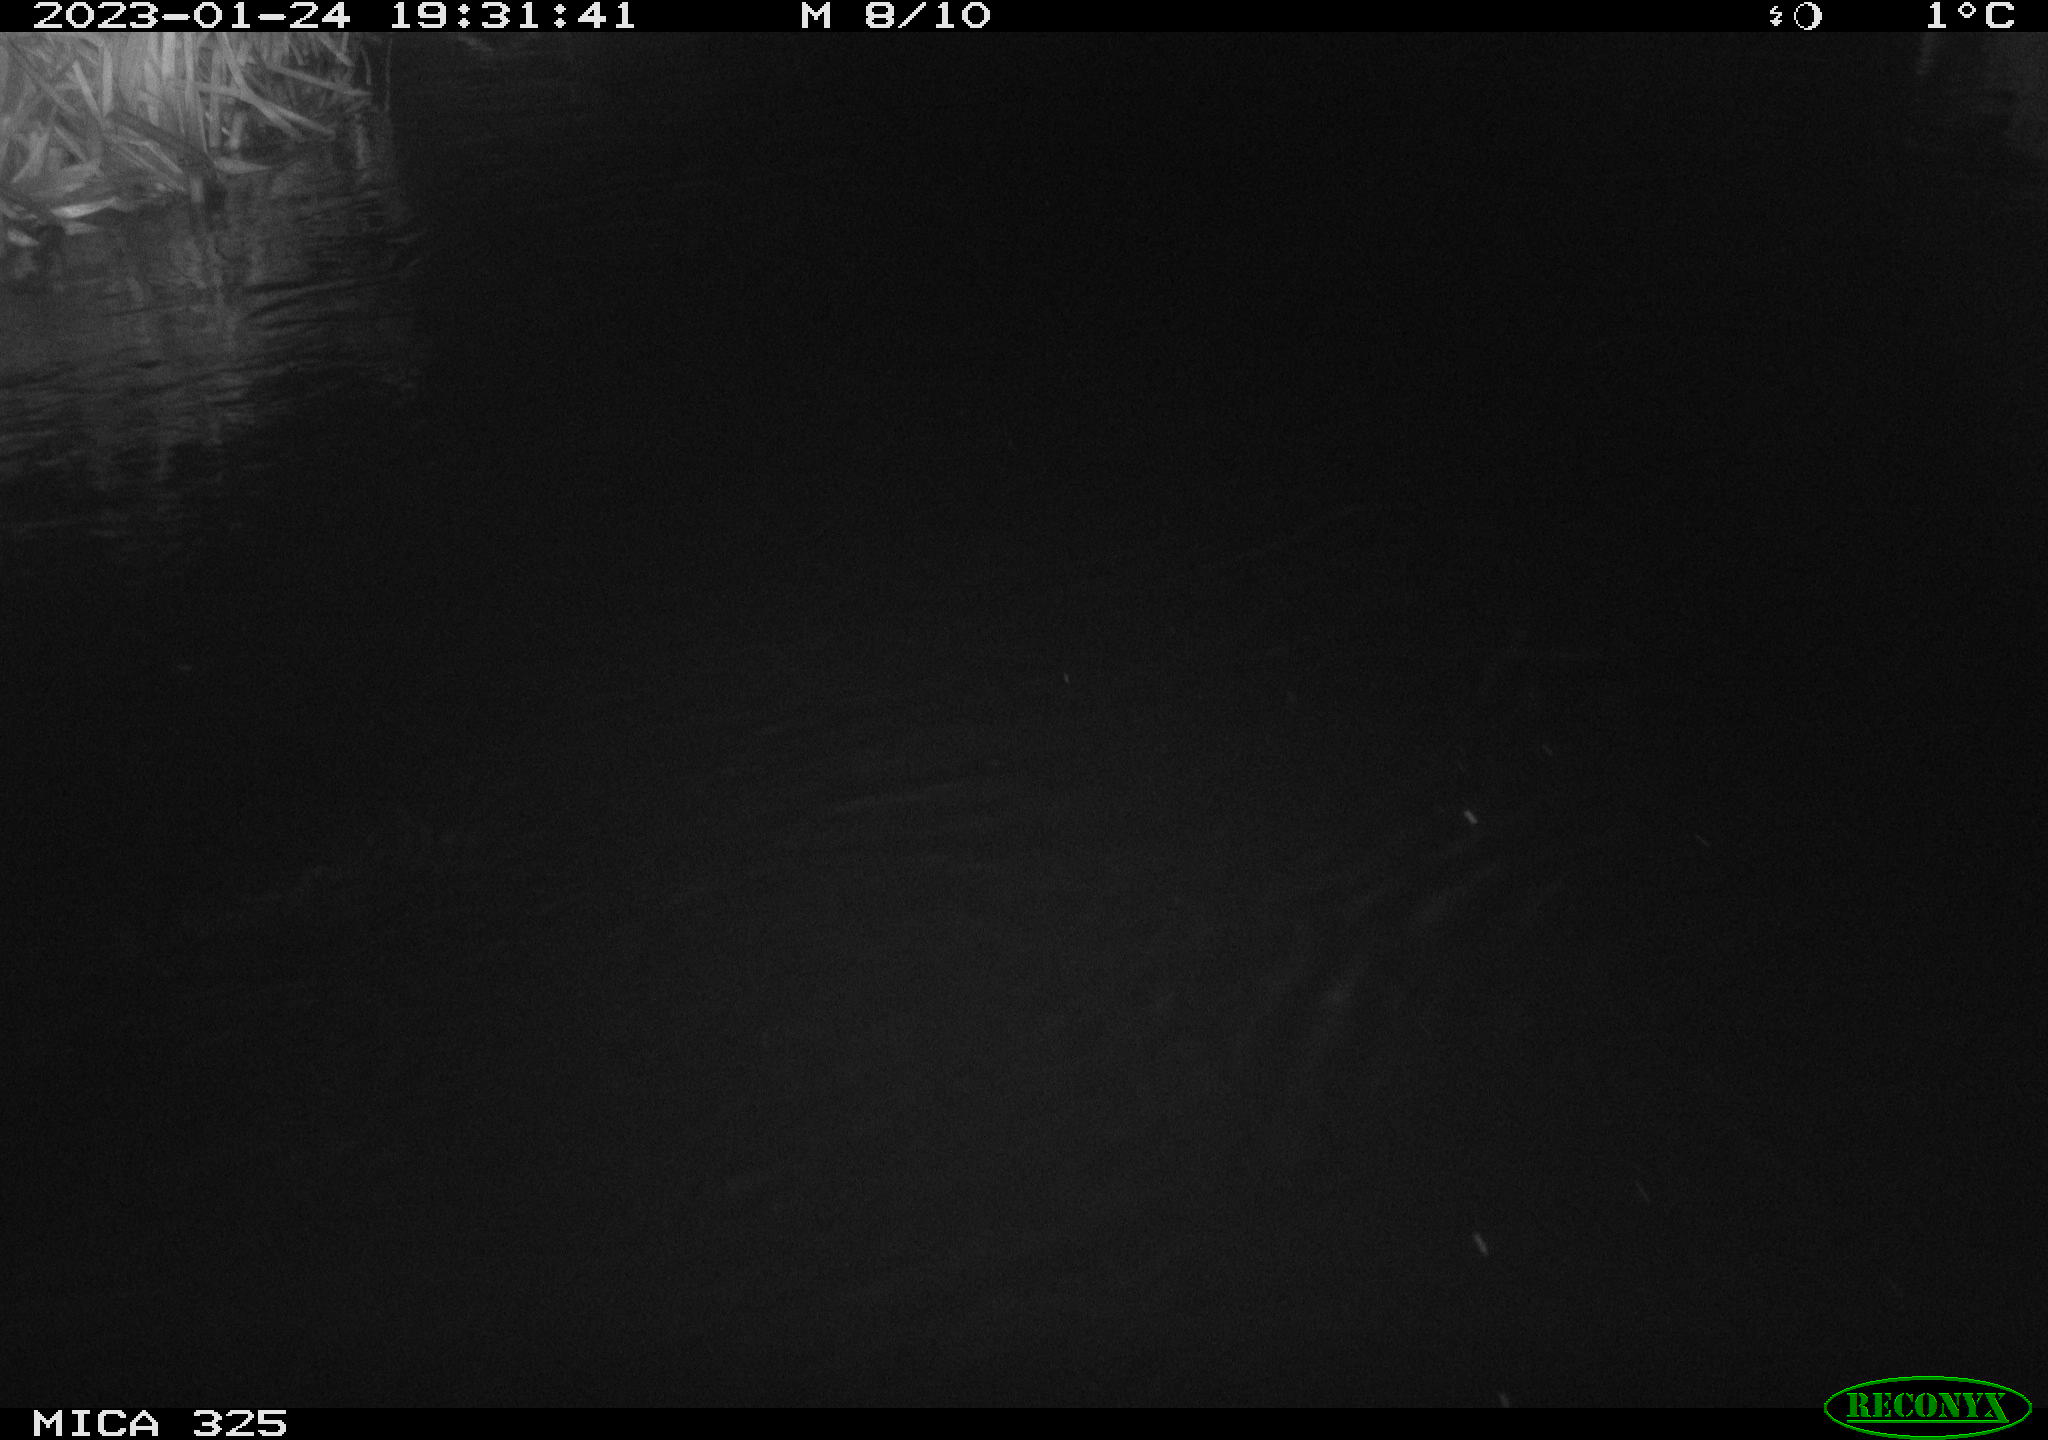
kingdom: Animalia
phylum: Chordata
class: Mammalia
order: Rodentia
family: Cricetidae
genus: Ondatra
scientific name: Ondatra zibethicus
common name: Muskrat
